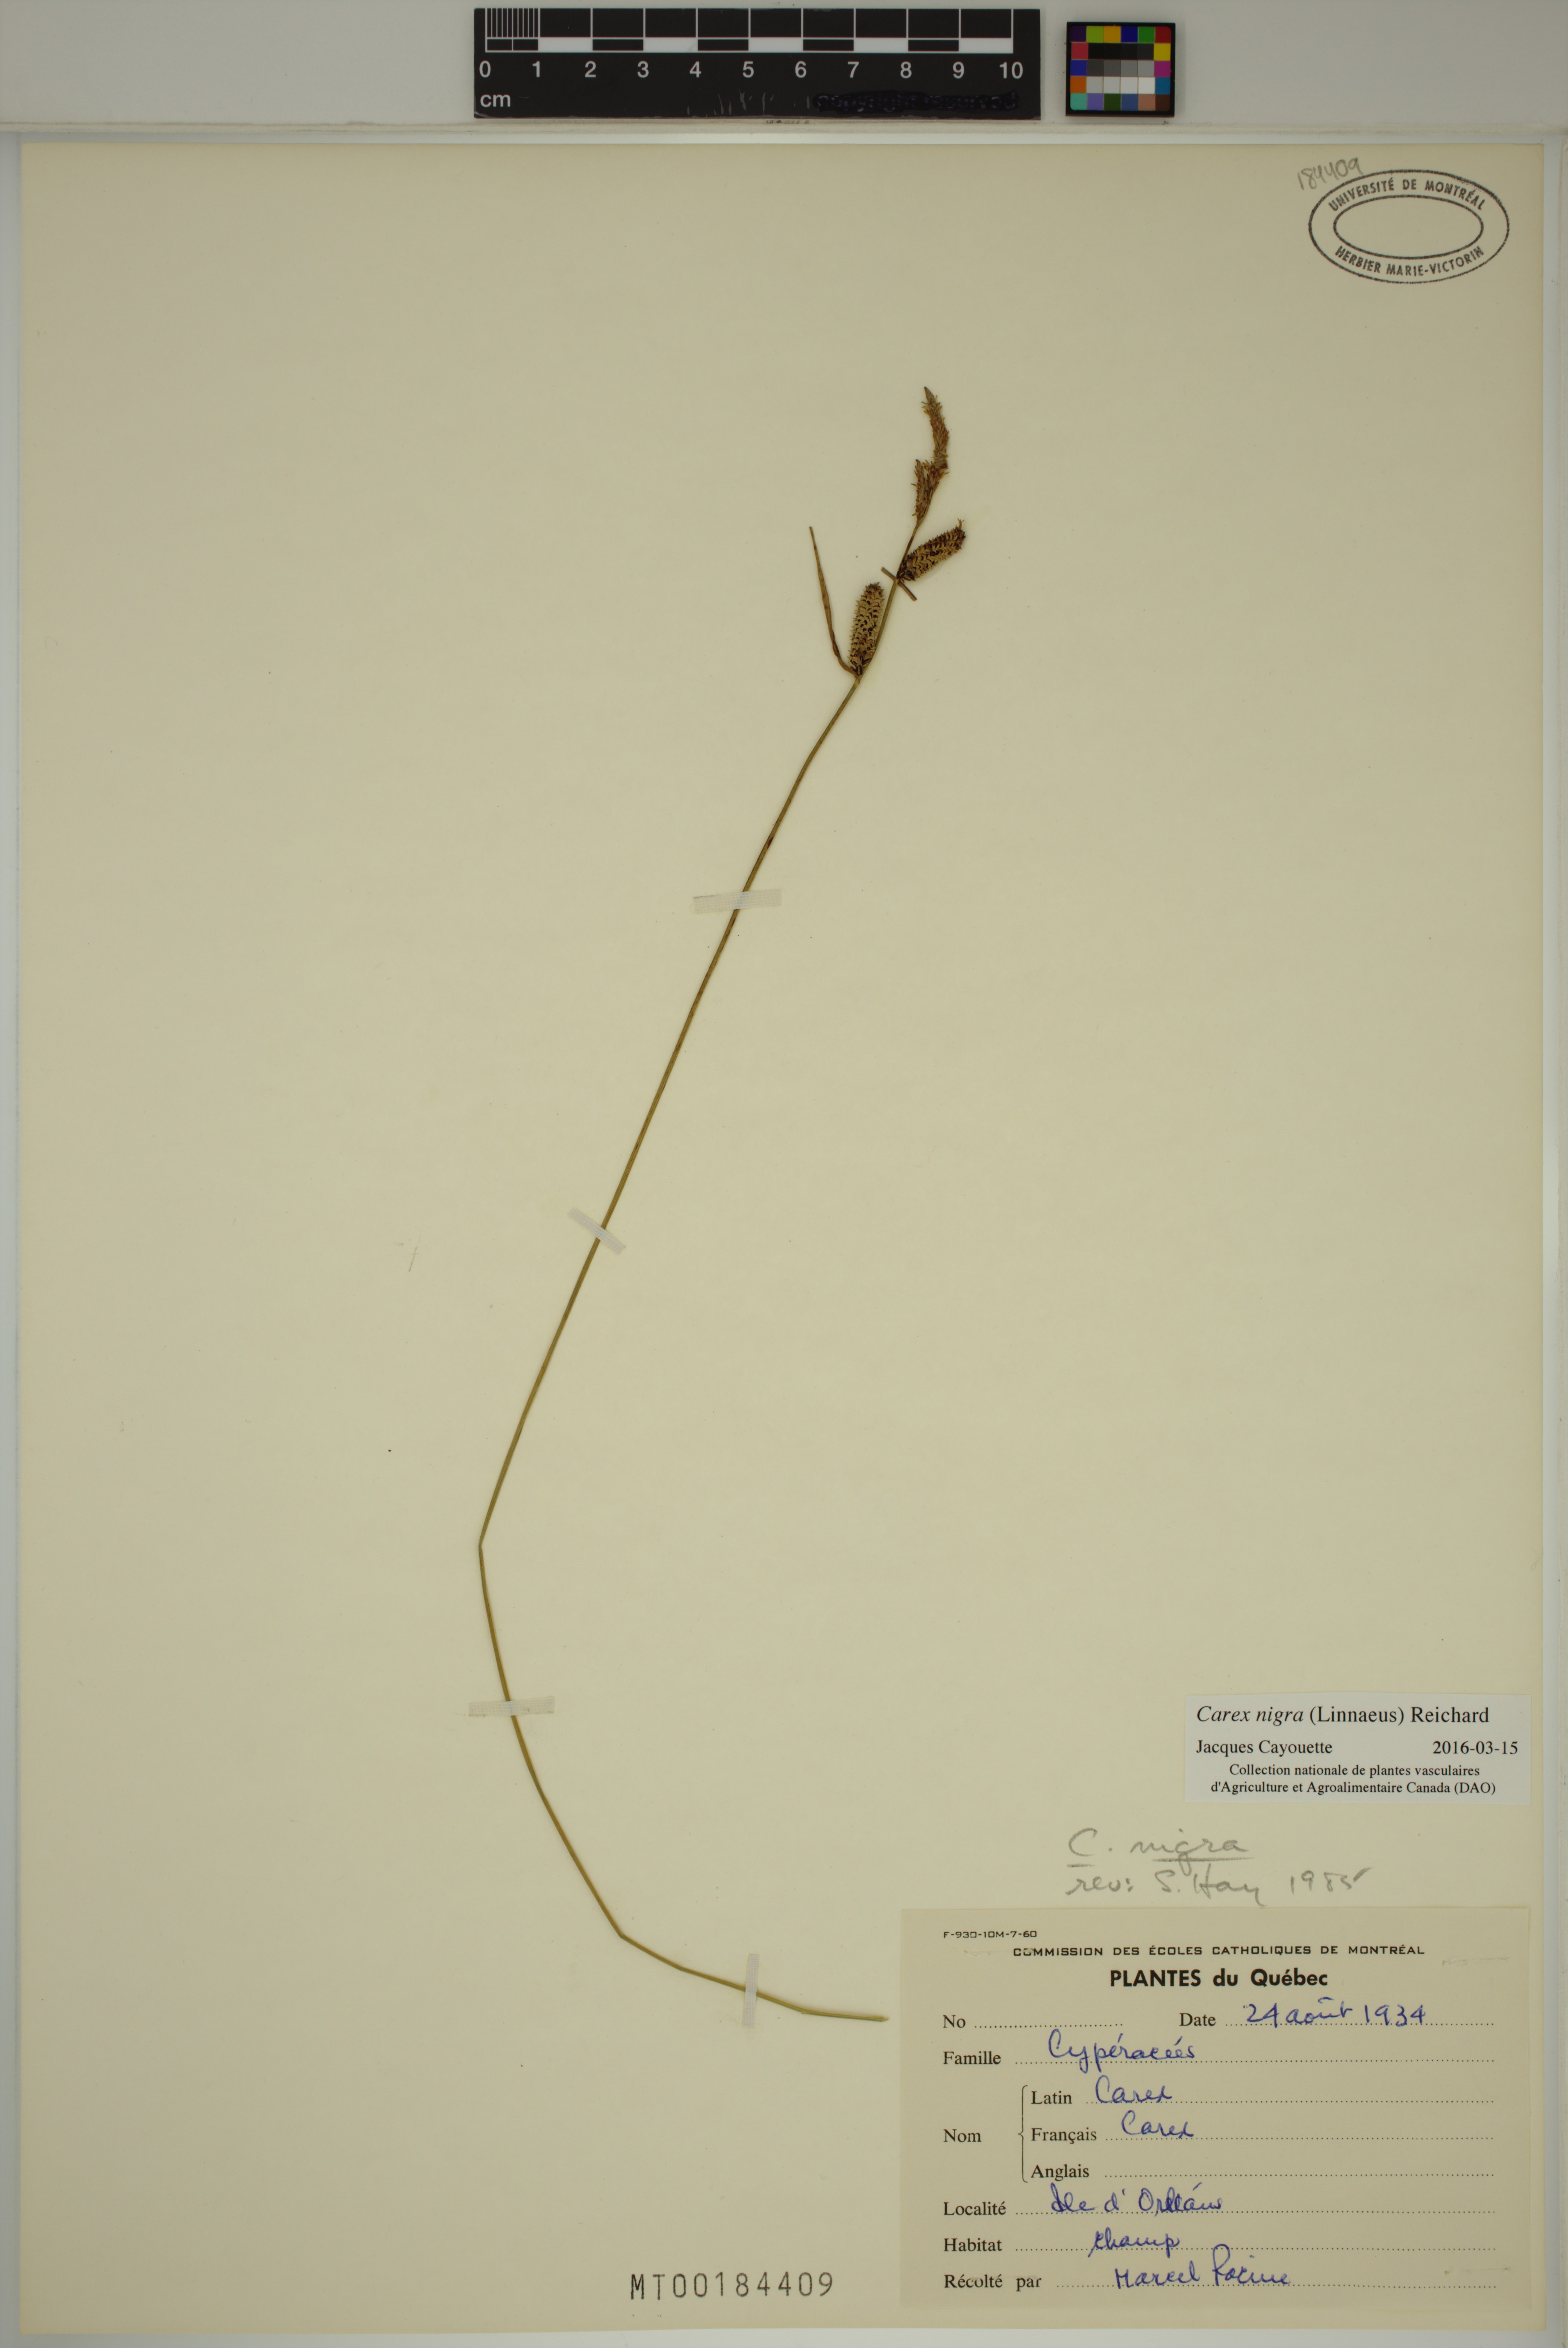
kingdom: Plantae
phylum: Tracheophyta
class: Liliopsida
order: Poales
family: Cyperaceae
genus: Carex
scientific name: Carex nigra
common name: Common sedge
